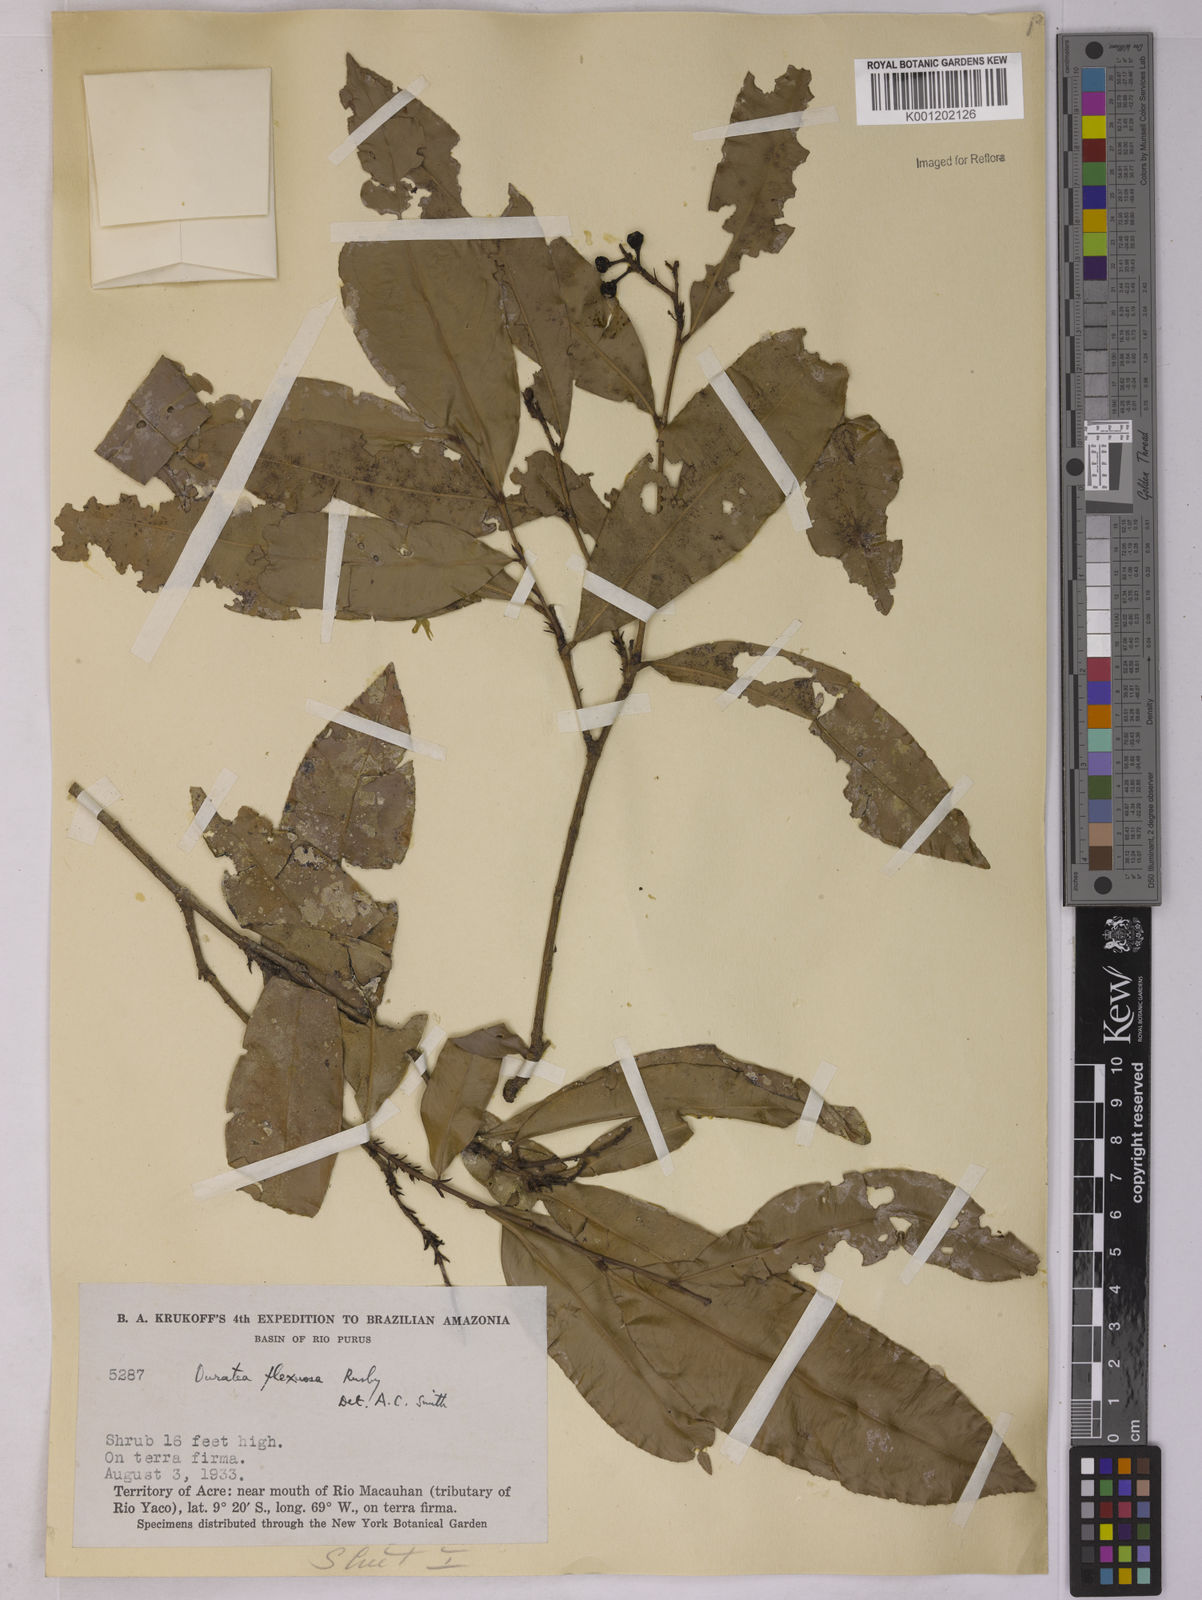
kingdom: Plantae
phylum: Tracheophyta
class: Magnoliopsida
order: Malpighiales
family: Ochnaceae
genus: Ouratea
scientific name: Ouratea flexuosa
